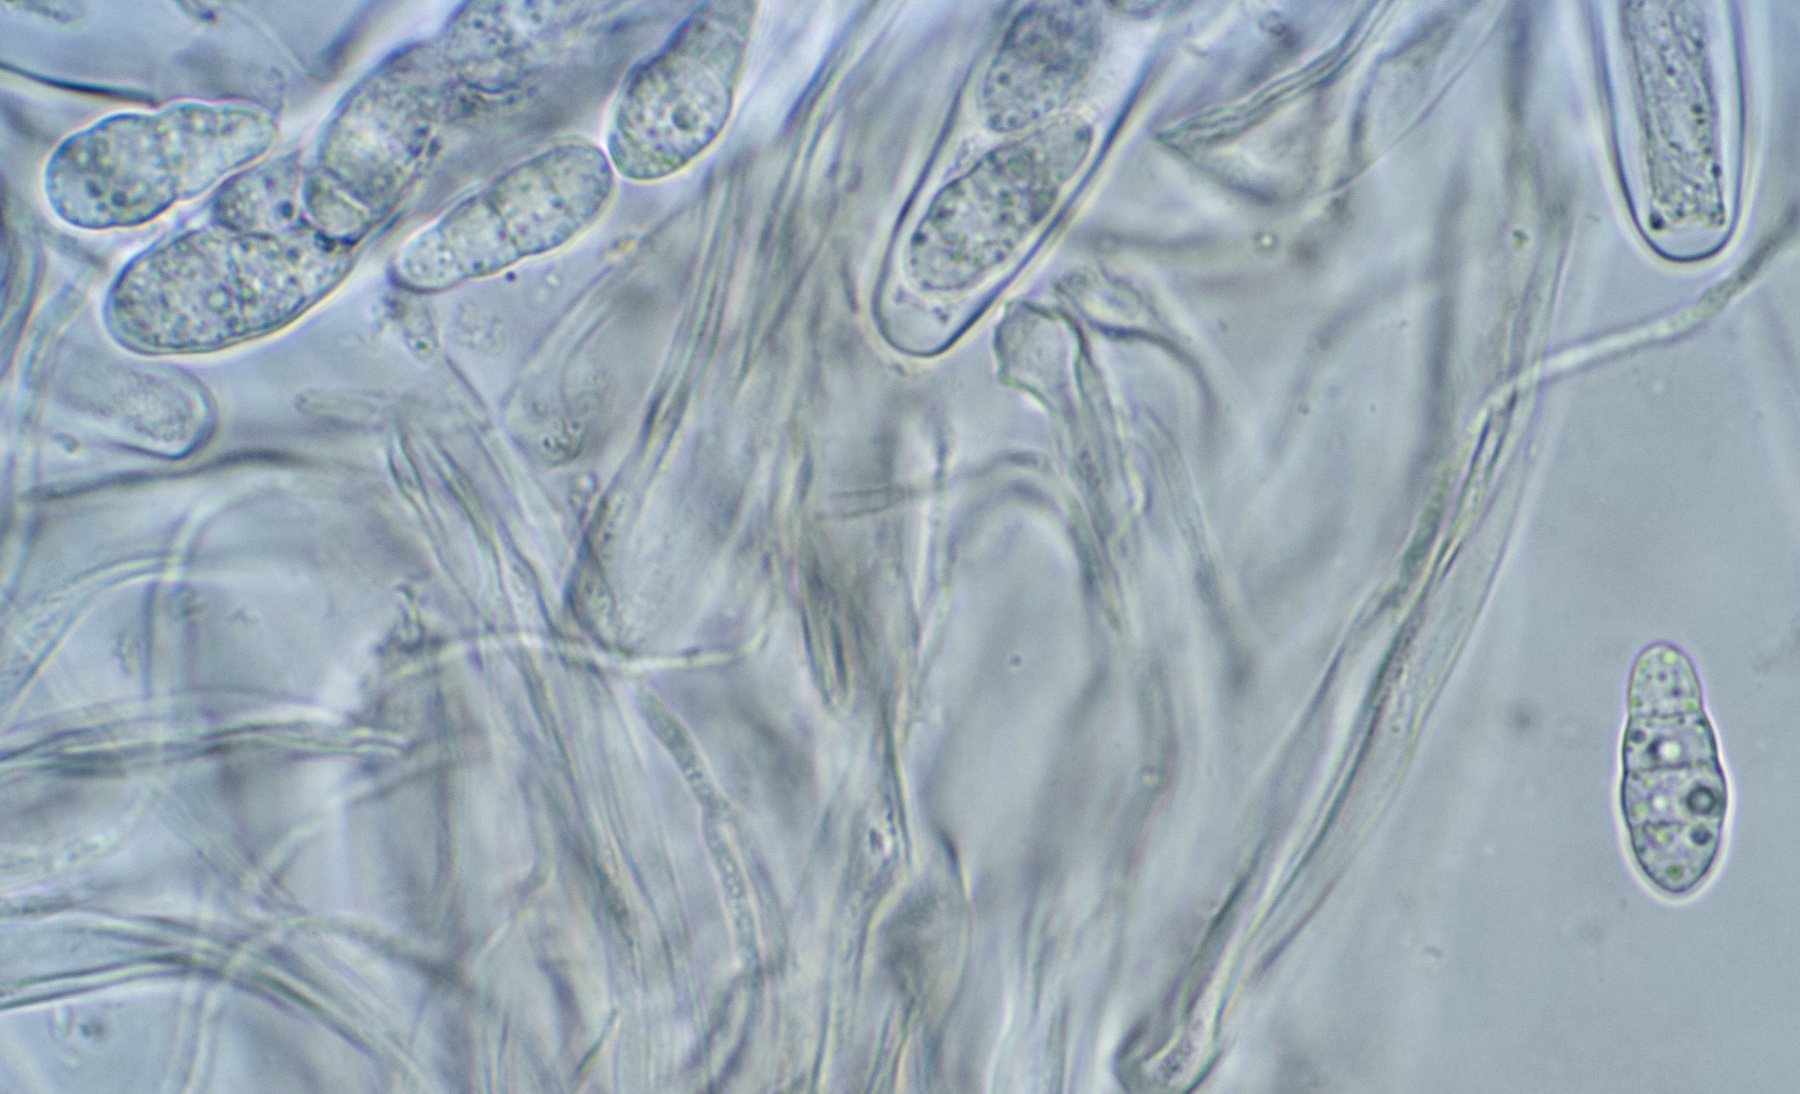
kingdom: Fungi
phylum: Ascomycota
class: Sordariomycetes
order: Xylariales
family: Hyponectriaceae
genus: Exarmidium
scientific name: Exarmidium inclusum
